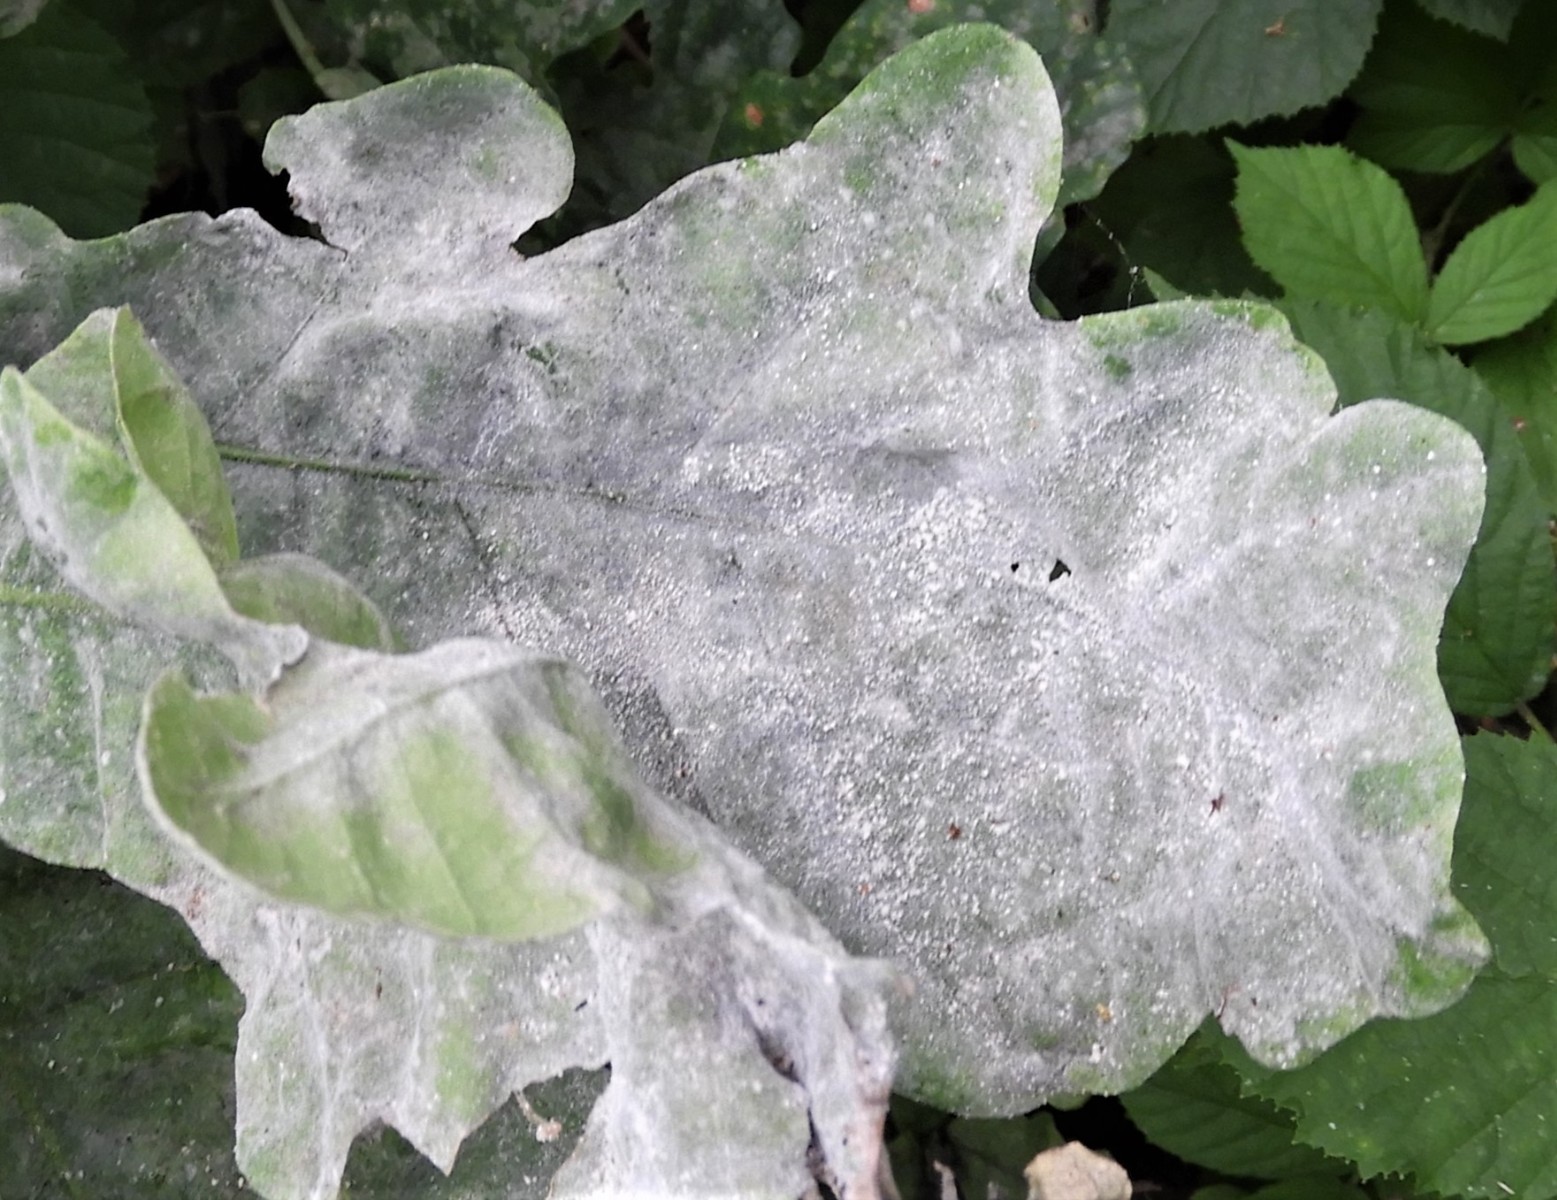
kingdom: Fungi
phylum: Ascomycota
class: Leotiomycetes
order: Helotiales
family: Erysiphaceae
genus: Erysiphe
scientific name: Erysiphe alphitoides
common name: ege-meldug
